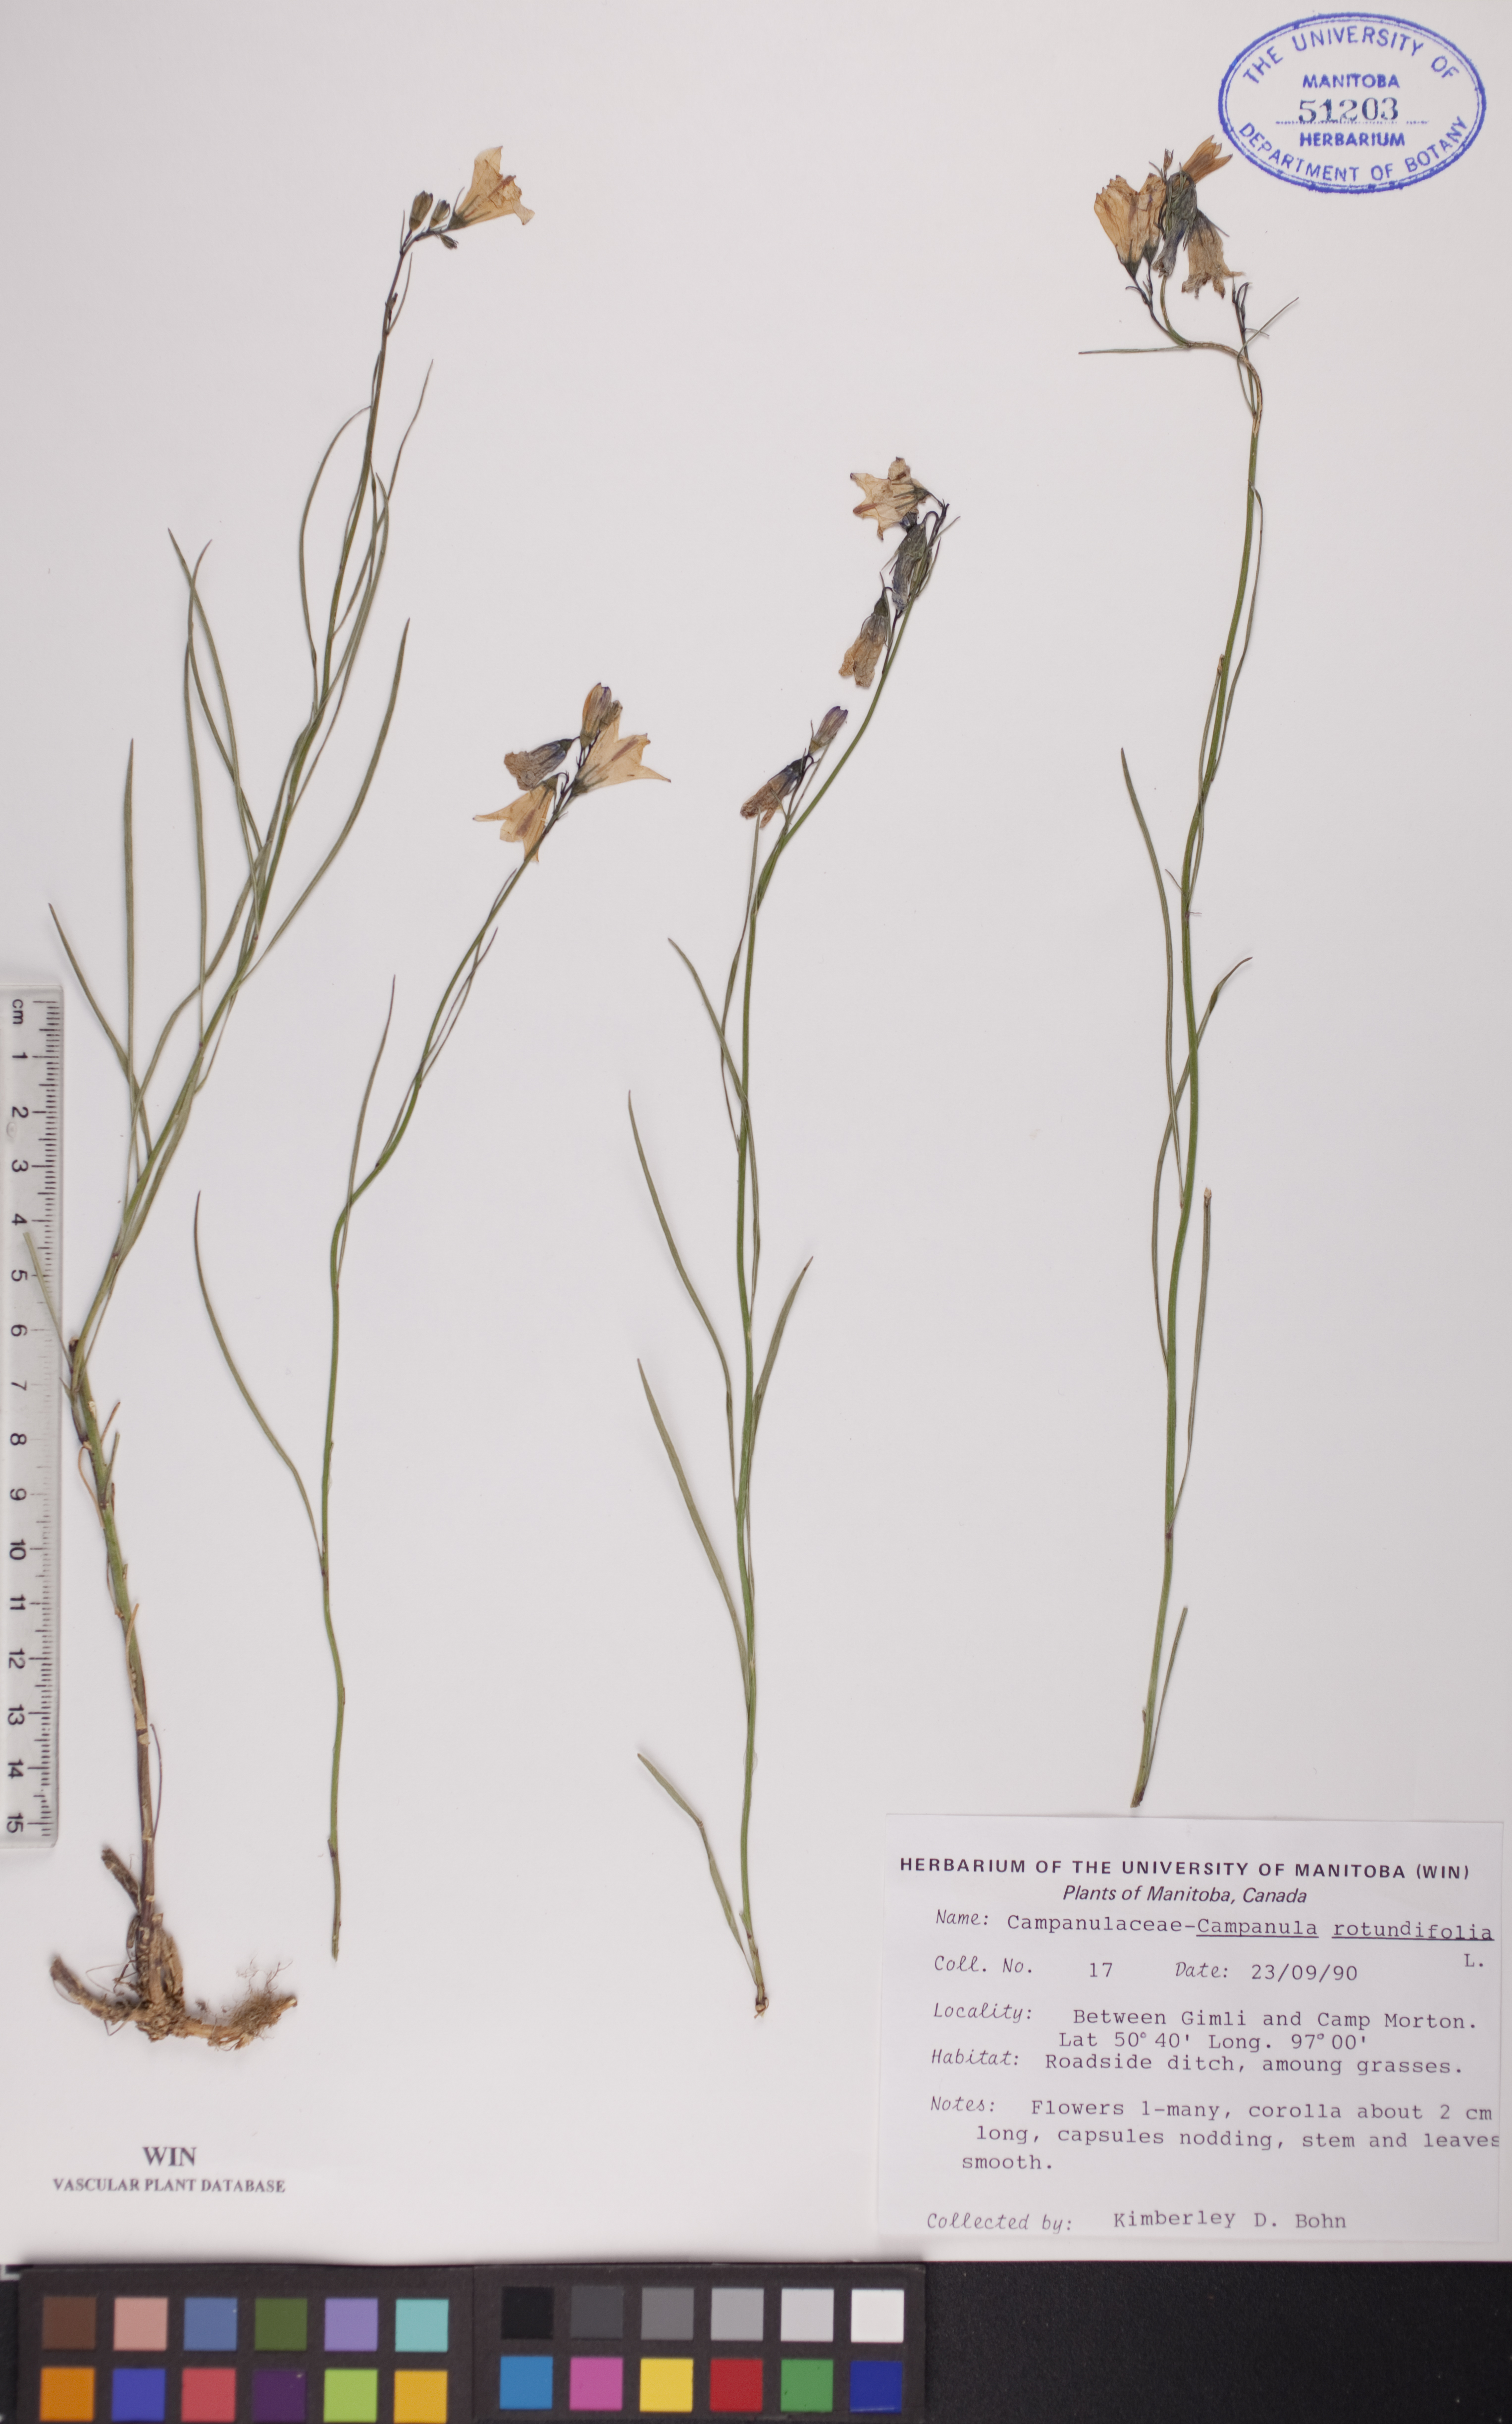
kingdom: Plantae
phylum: Tracheophyta
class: Magnoliopsida
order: Asterales
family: Campanulaceae
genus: Campanula
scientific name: Campanula rotundifolia
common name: Harebell
